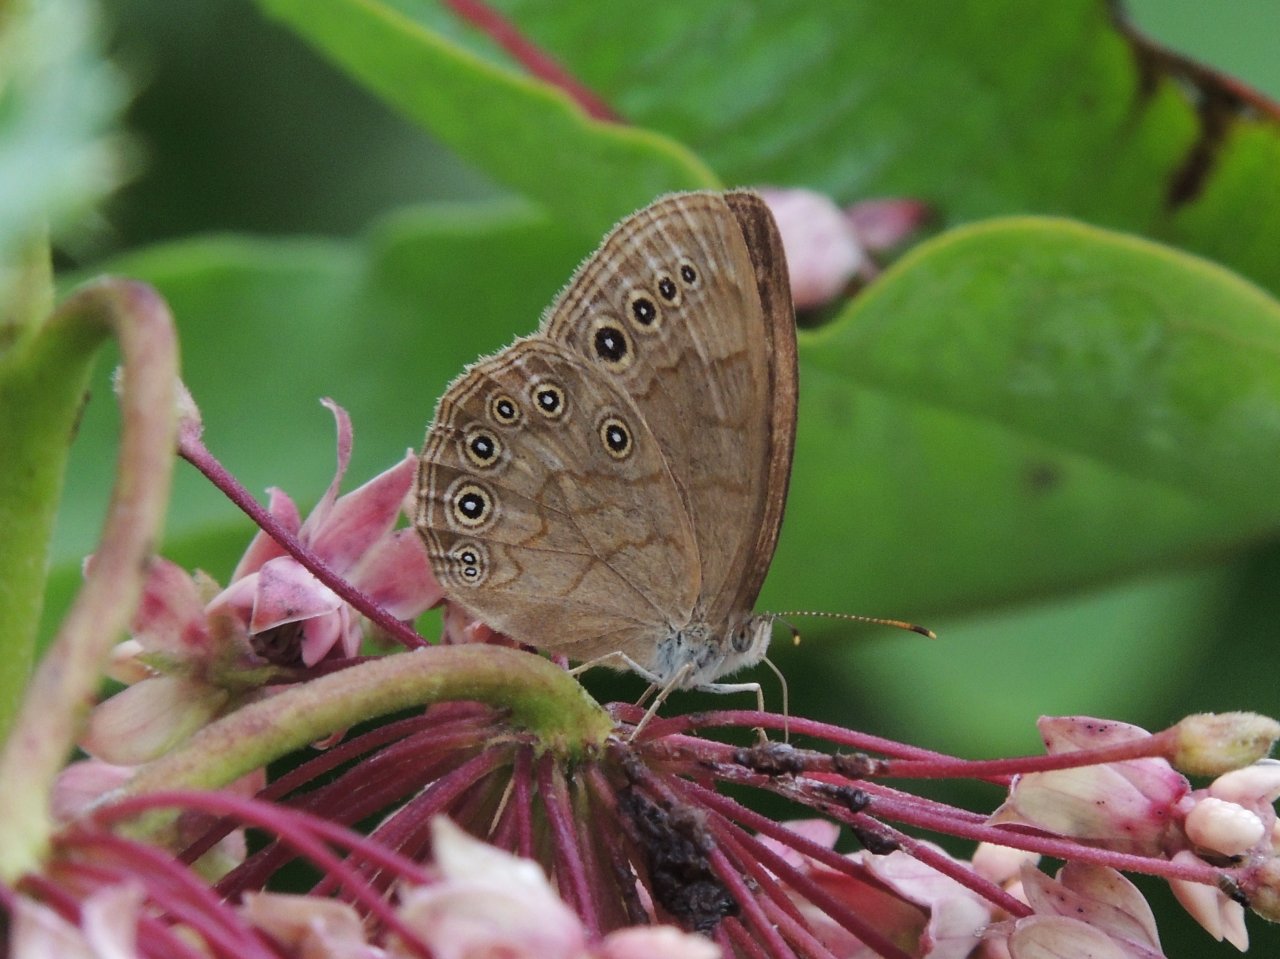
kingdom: Animalia
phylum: Arthropoda
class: Insecta
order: Lepidoptera
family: Nymphalidae
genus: Lethe
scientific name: Lethe eurydice
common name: Eyed Brown
